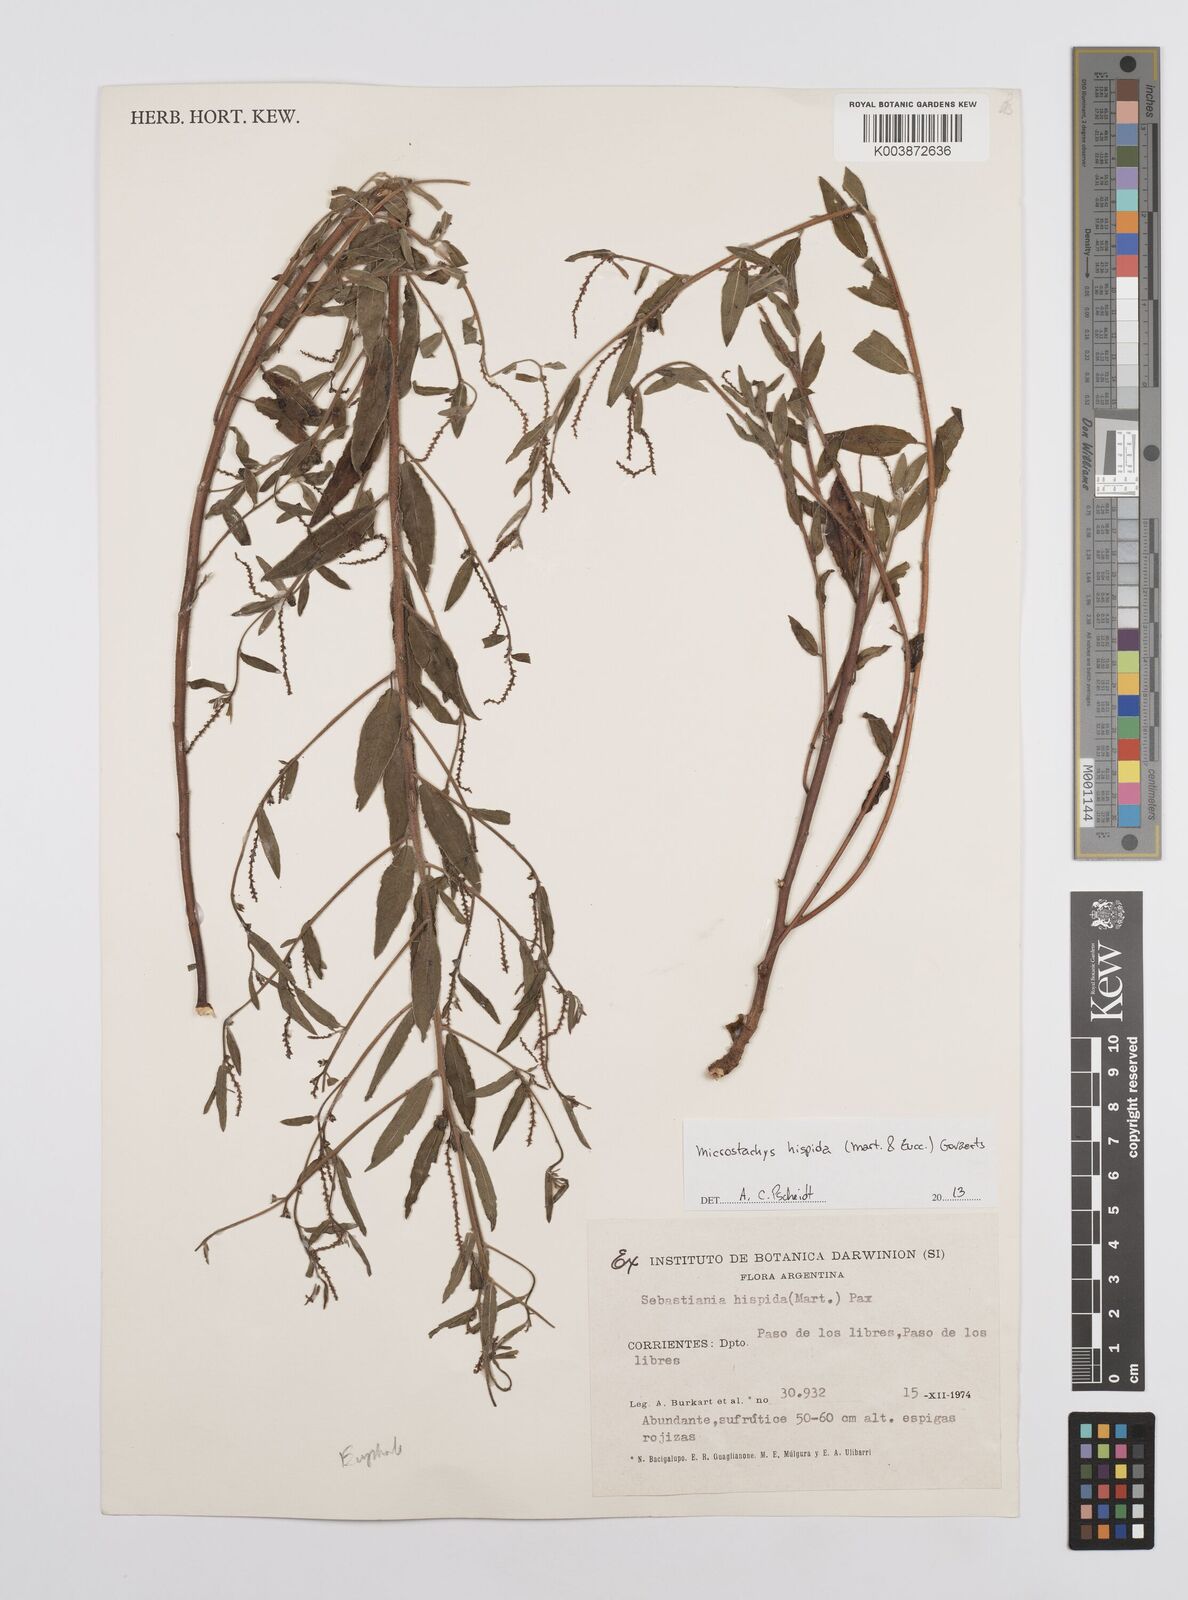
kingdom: Plantae
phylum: Tracheophyta
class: Magnoliopsida
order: Malpighiales
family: Euphorbiaceae
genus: Microstachys
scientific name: Microstachys hispida
